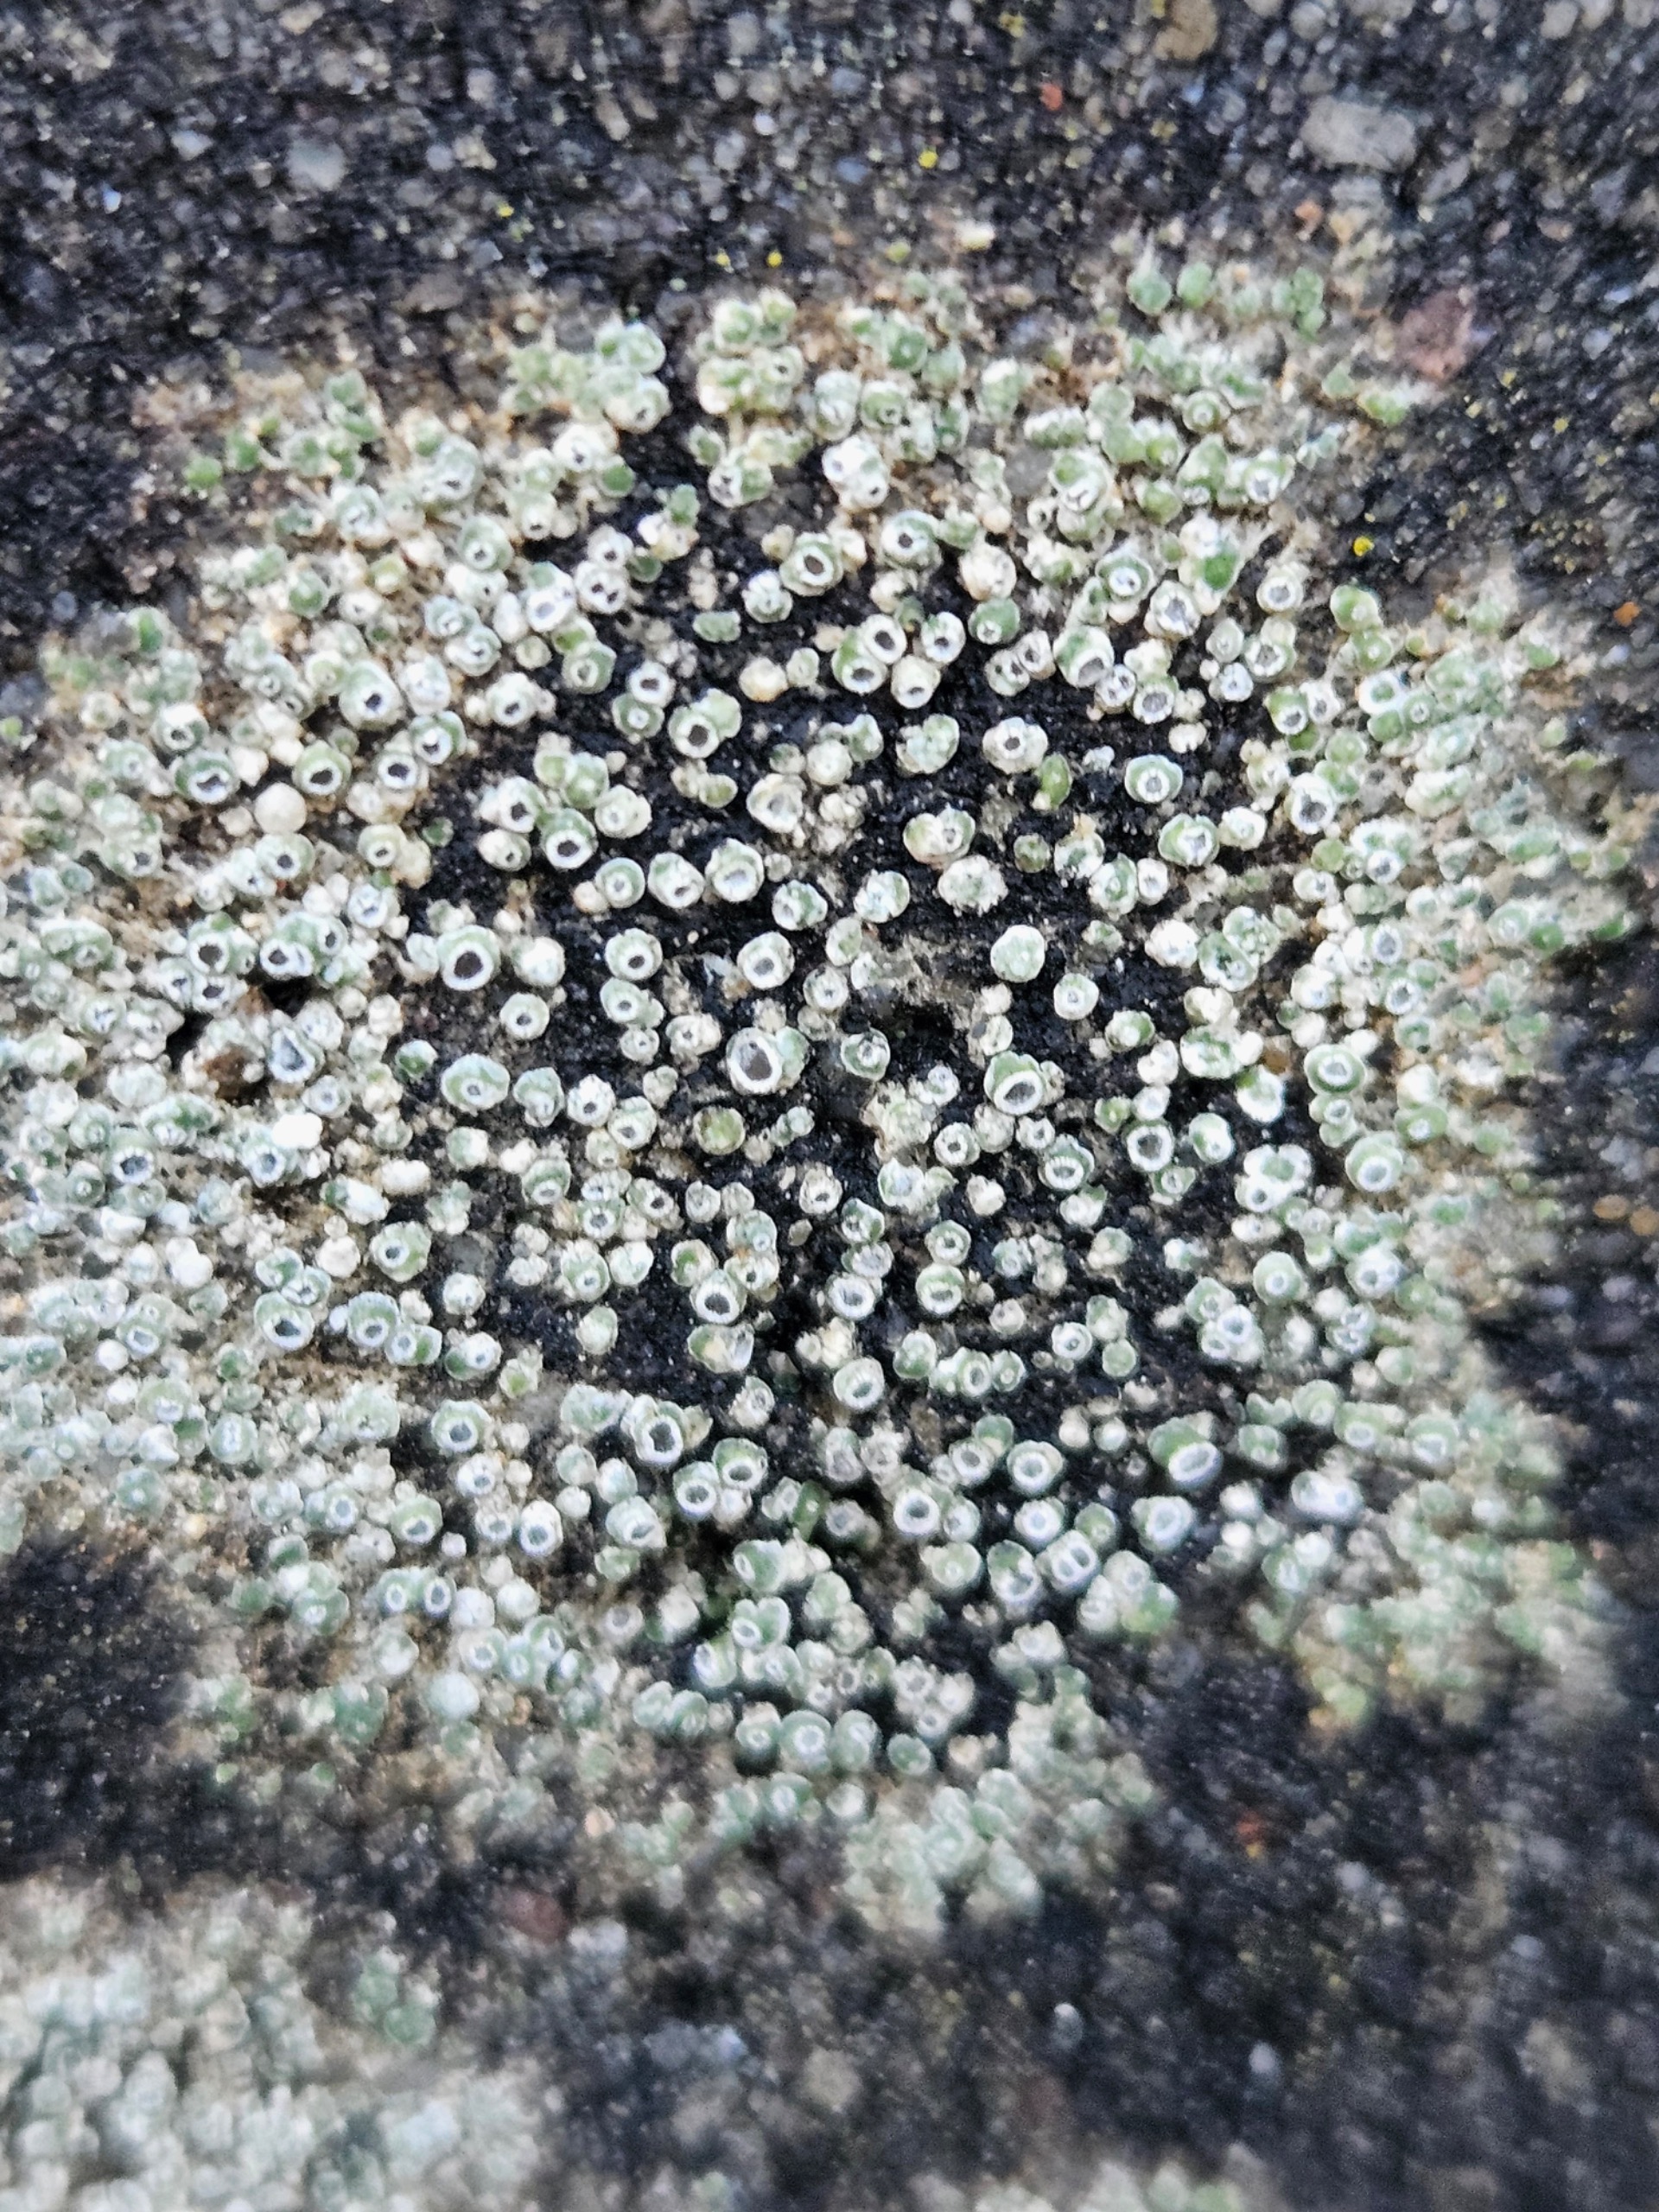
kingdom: Fungi
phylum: Ascomycota
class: Lecanoromycetes
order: Pertusariales
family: Megasporaceae
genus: Circinaria
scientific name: Circinaria contorta
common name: Indviklet hulskivelav
